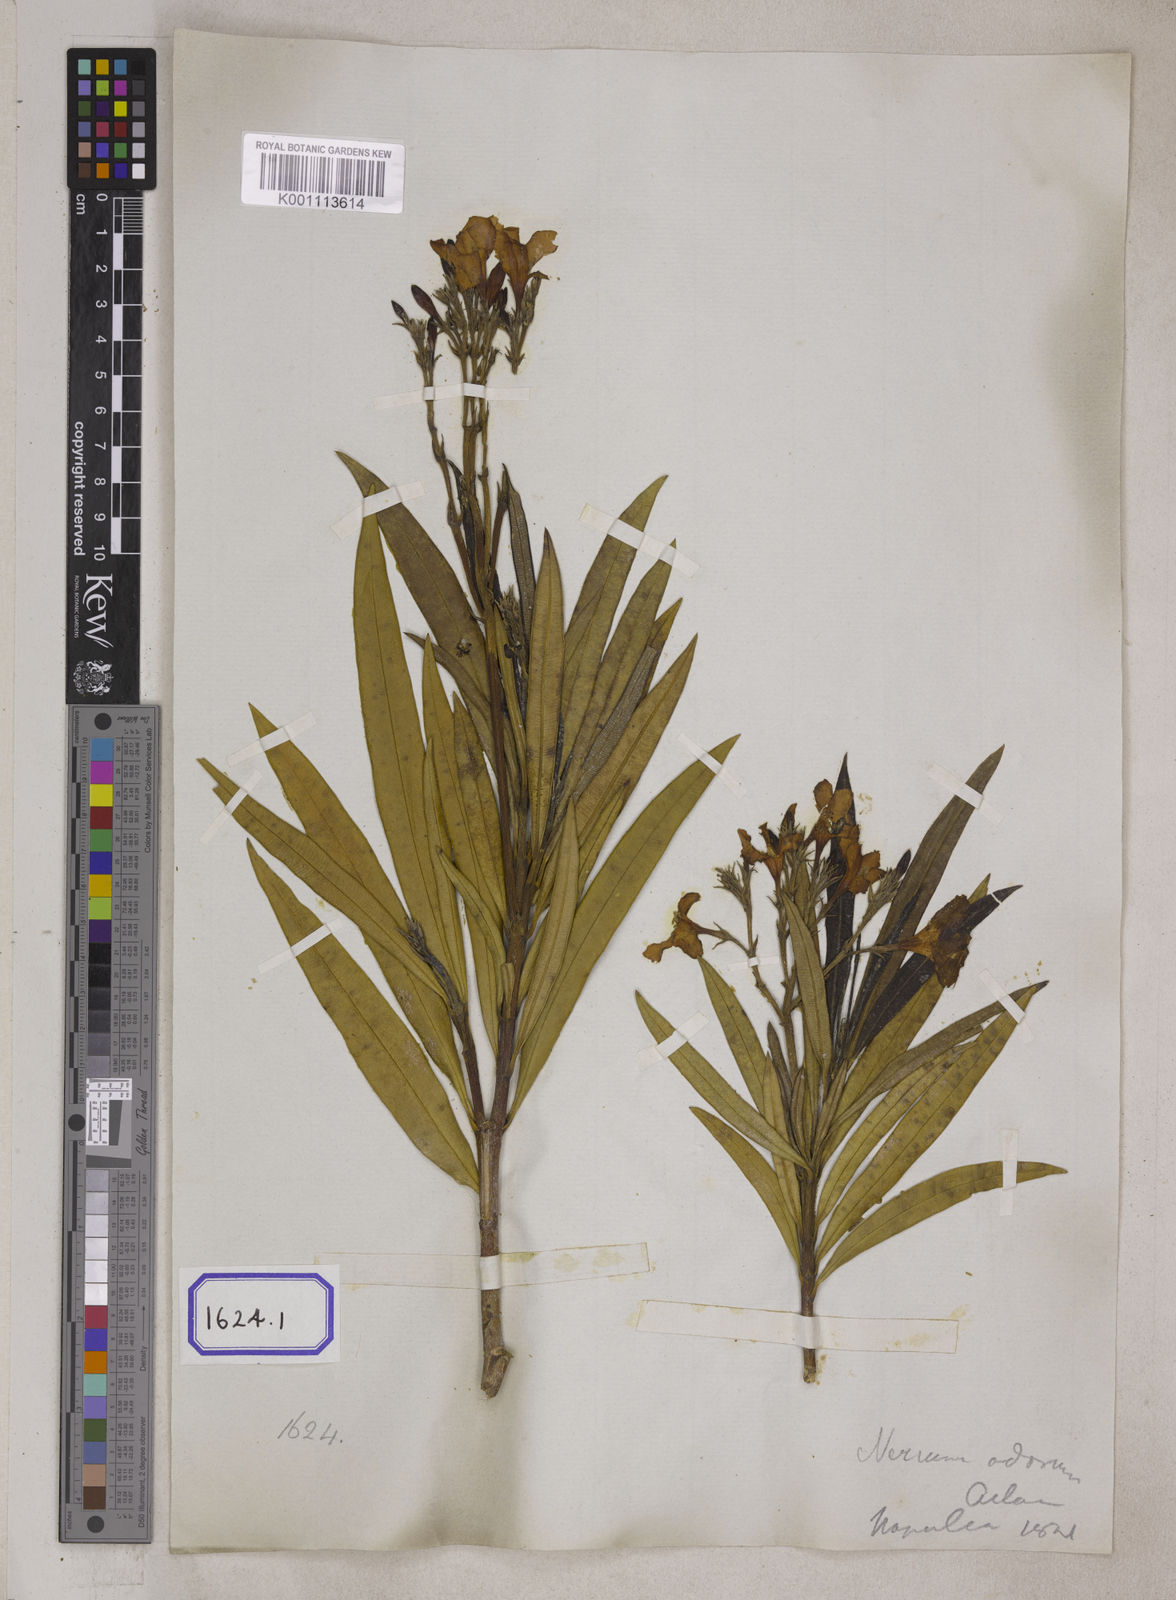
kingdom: Plantae
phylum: Tracheophyta
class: Magnoliopsida
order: Gentianales
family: Apocynaceae
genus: Nerium
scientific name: Nerium indicum
